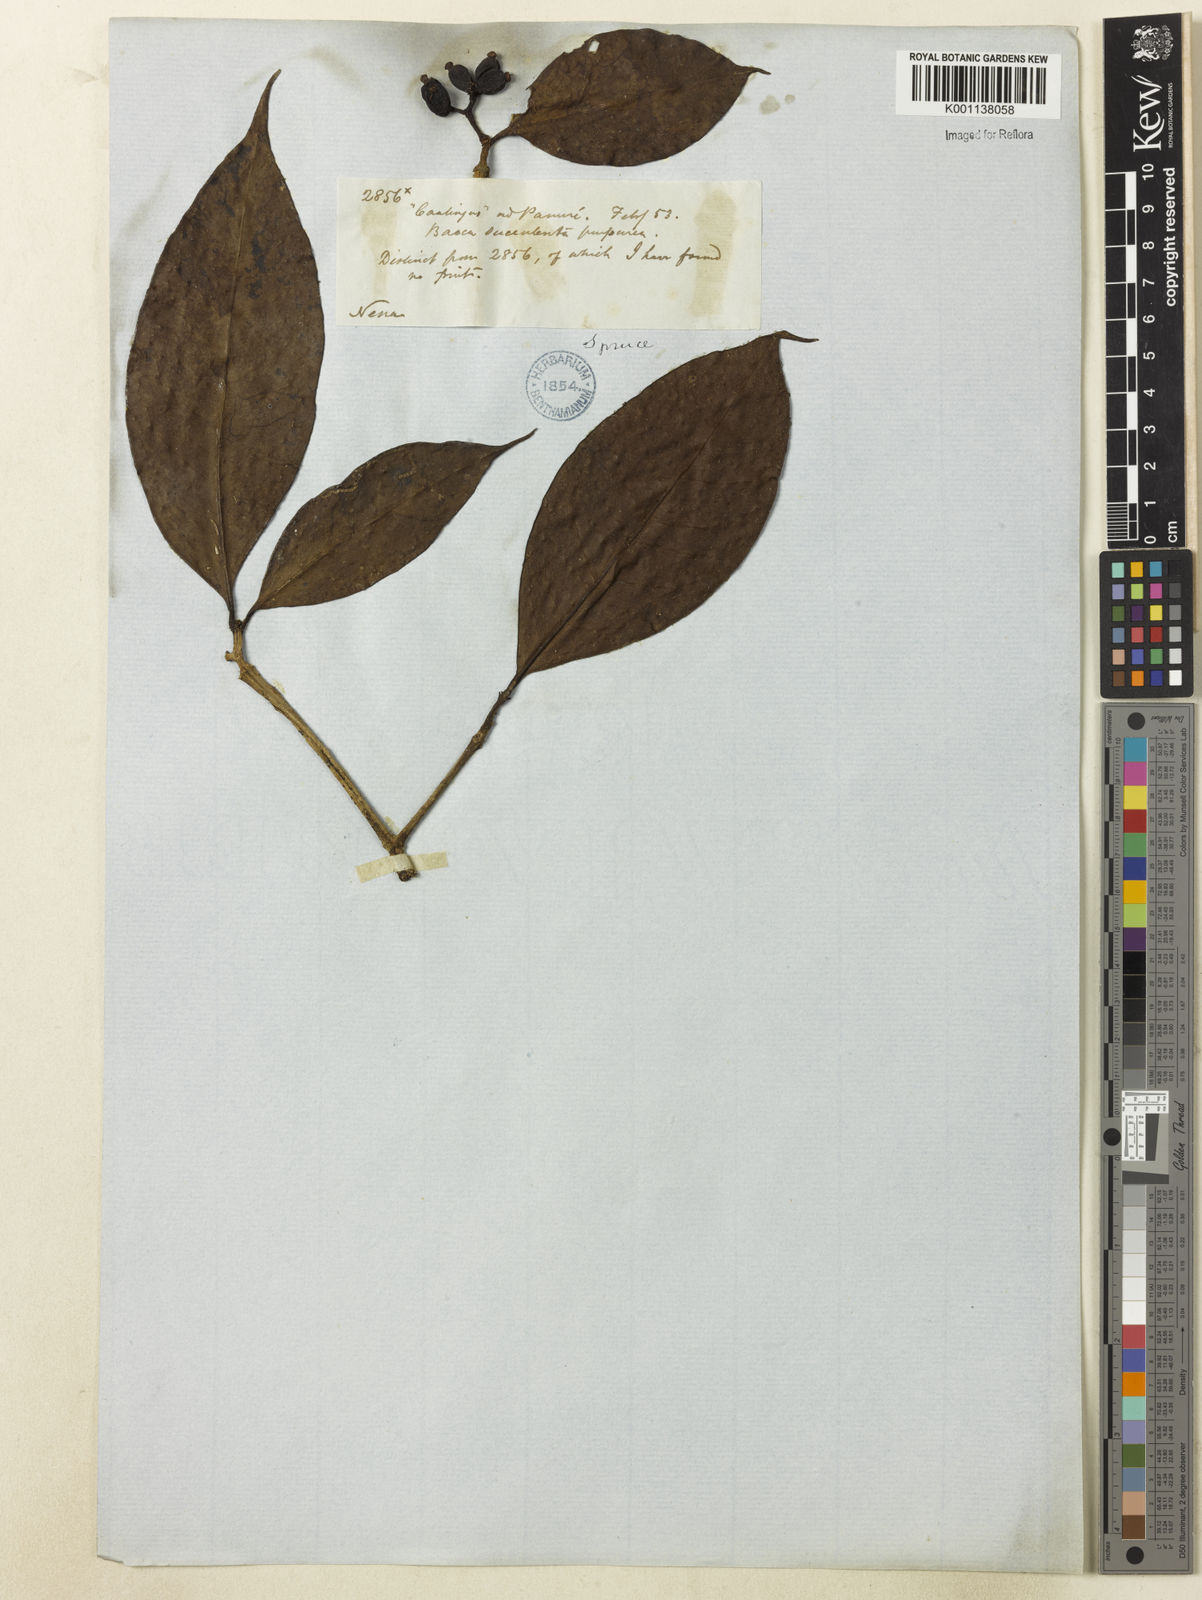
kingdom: Plantae
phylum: Tracheophyta
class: Magnoliopsida
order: Caryophyllales
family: Nyctaginaceae
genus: Neea
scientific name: Neea
